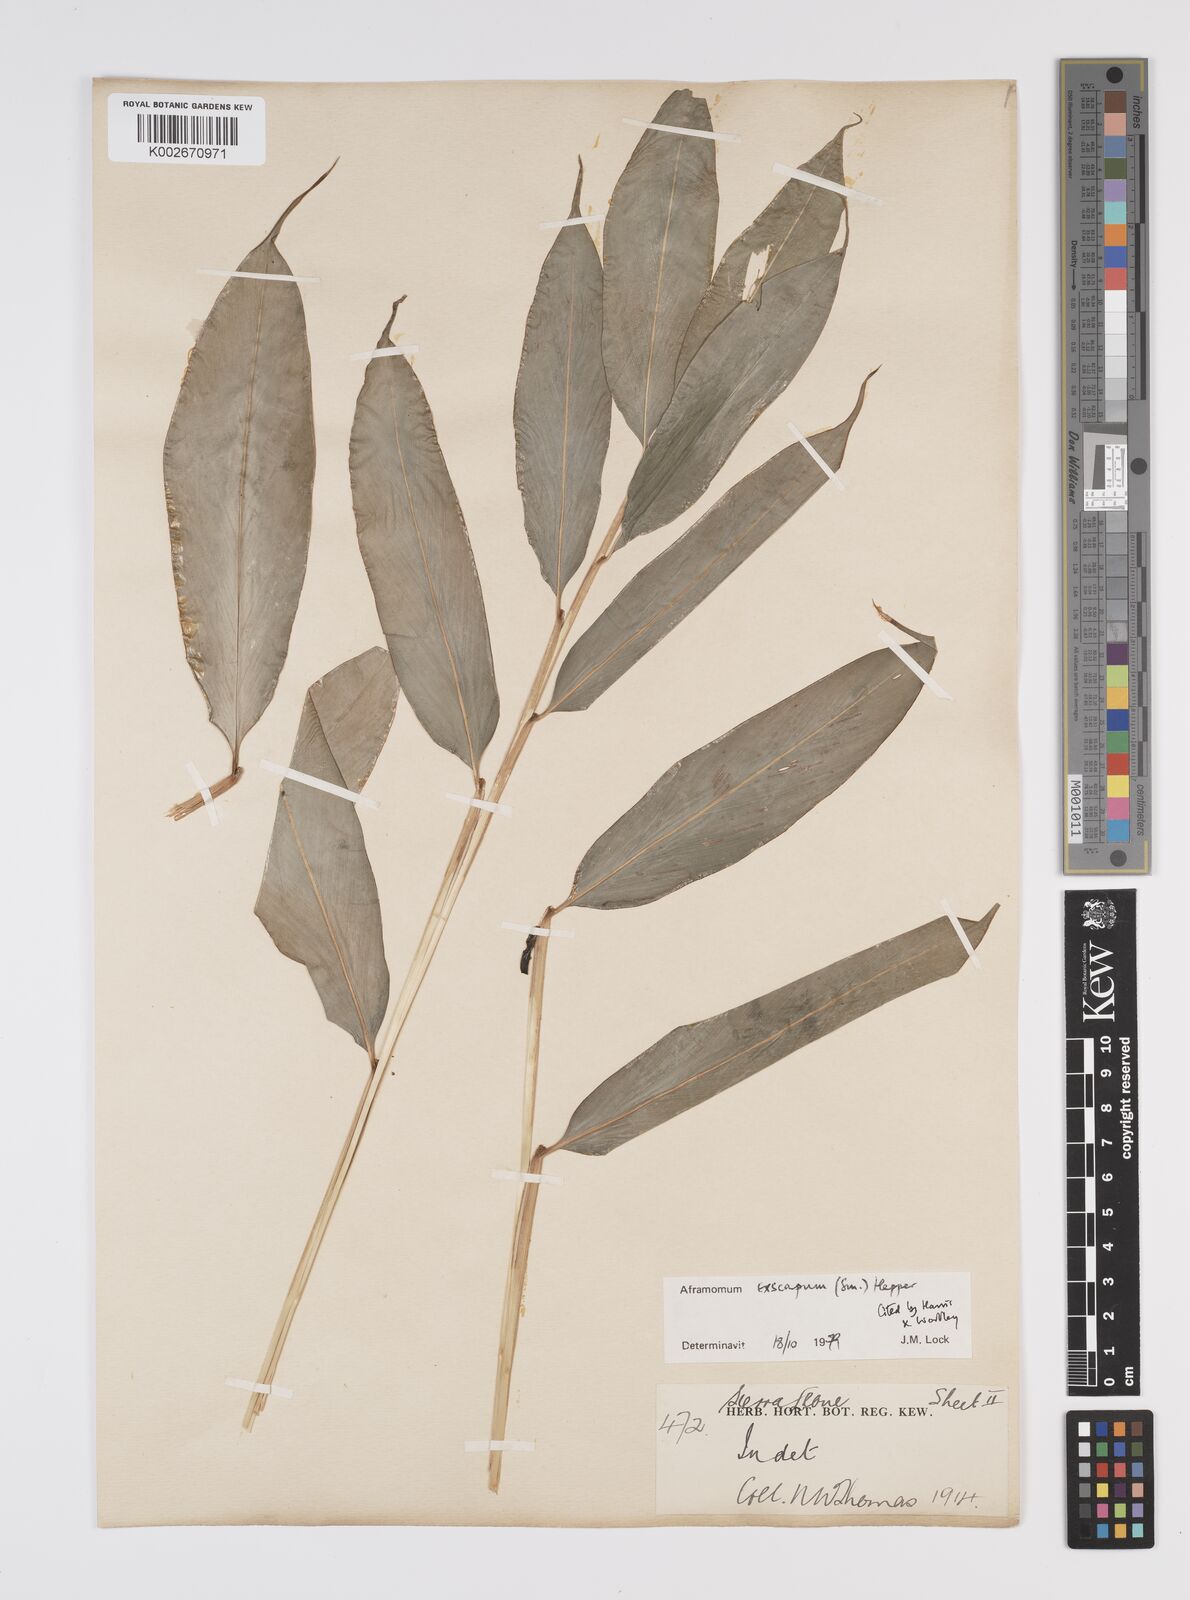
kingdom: Plantae
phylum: Tracheophyta
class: Liliopsida
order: Zingiberales
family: Zingiberaceae
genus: Aframomum
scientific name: Aframomum exscapum
